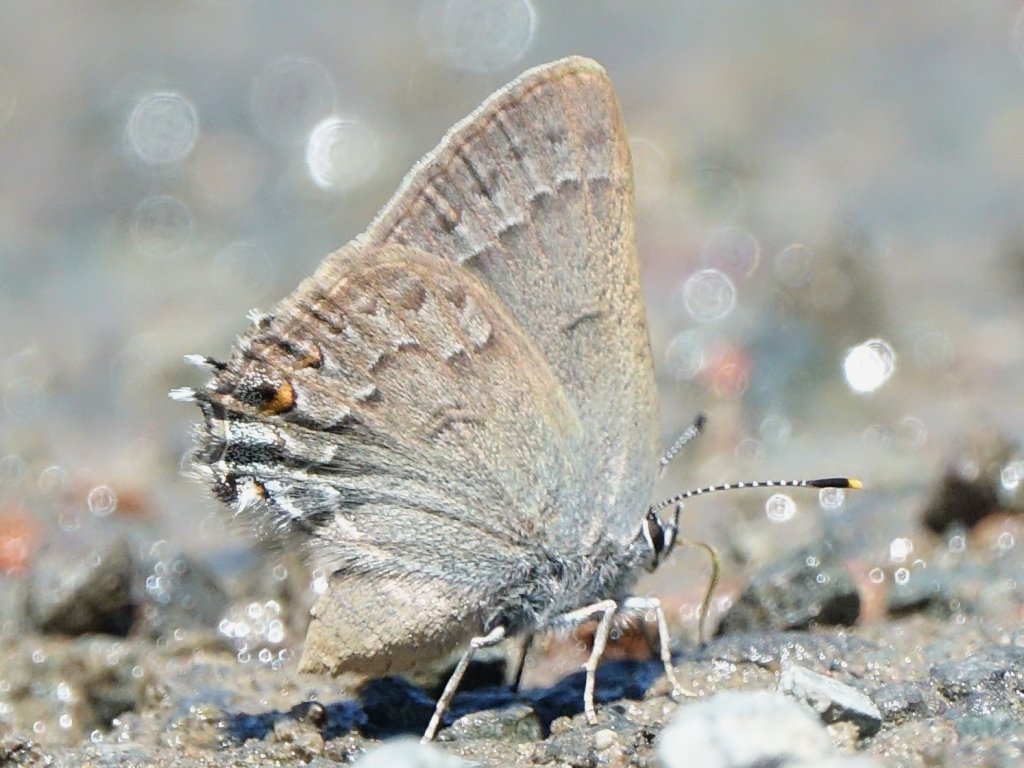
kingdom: Animalia
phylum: Arthropoda
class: Insecta
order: Lepidoptera
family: Lycaenidae
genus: Strymon
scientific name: Strymon saepium
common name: Hedgerow Hairstreak
